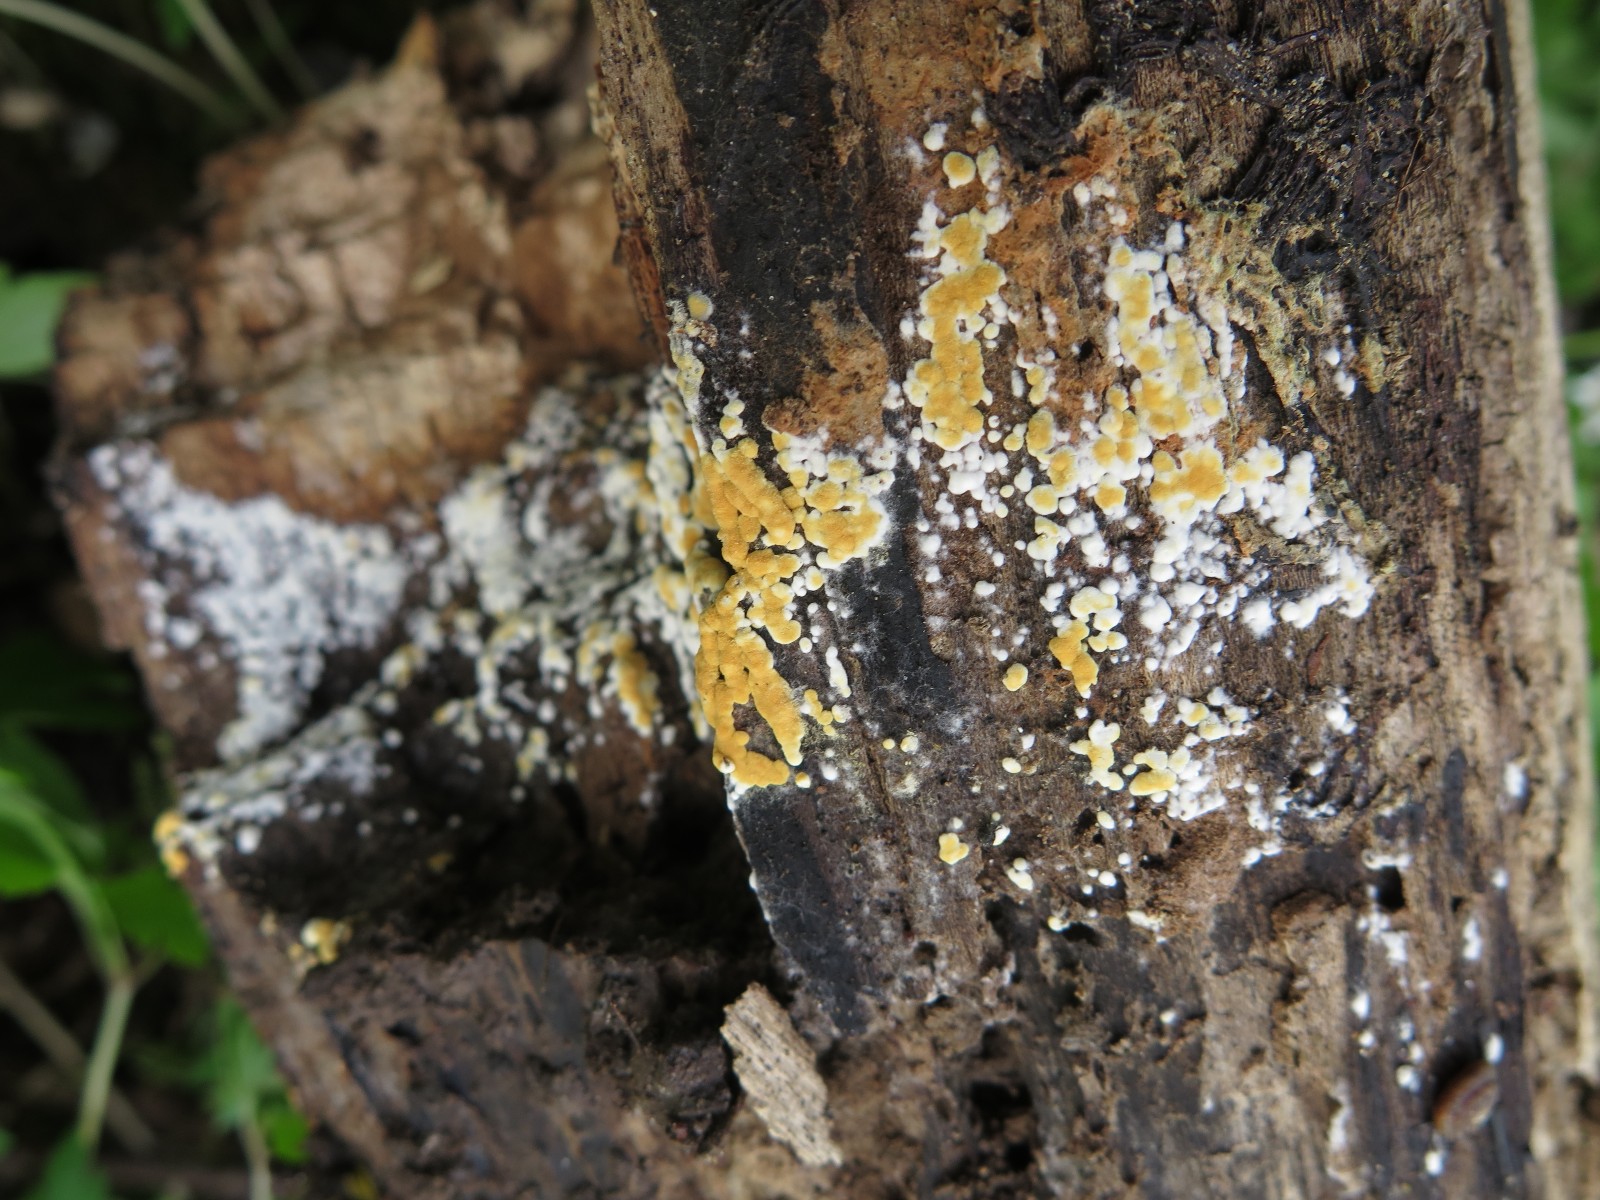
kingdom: Fungi
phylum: Basidiomycota
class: Agaricomycetes
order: Cantharellales
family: Botryobasidiaceae
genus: Botryobasidium
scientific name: Botryobasidium aureum
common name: gylden spindhinde
